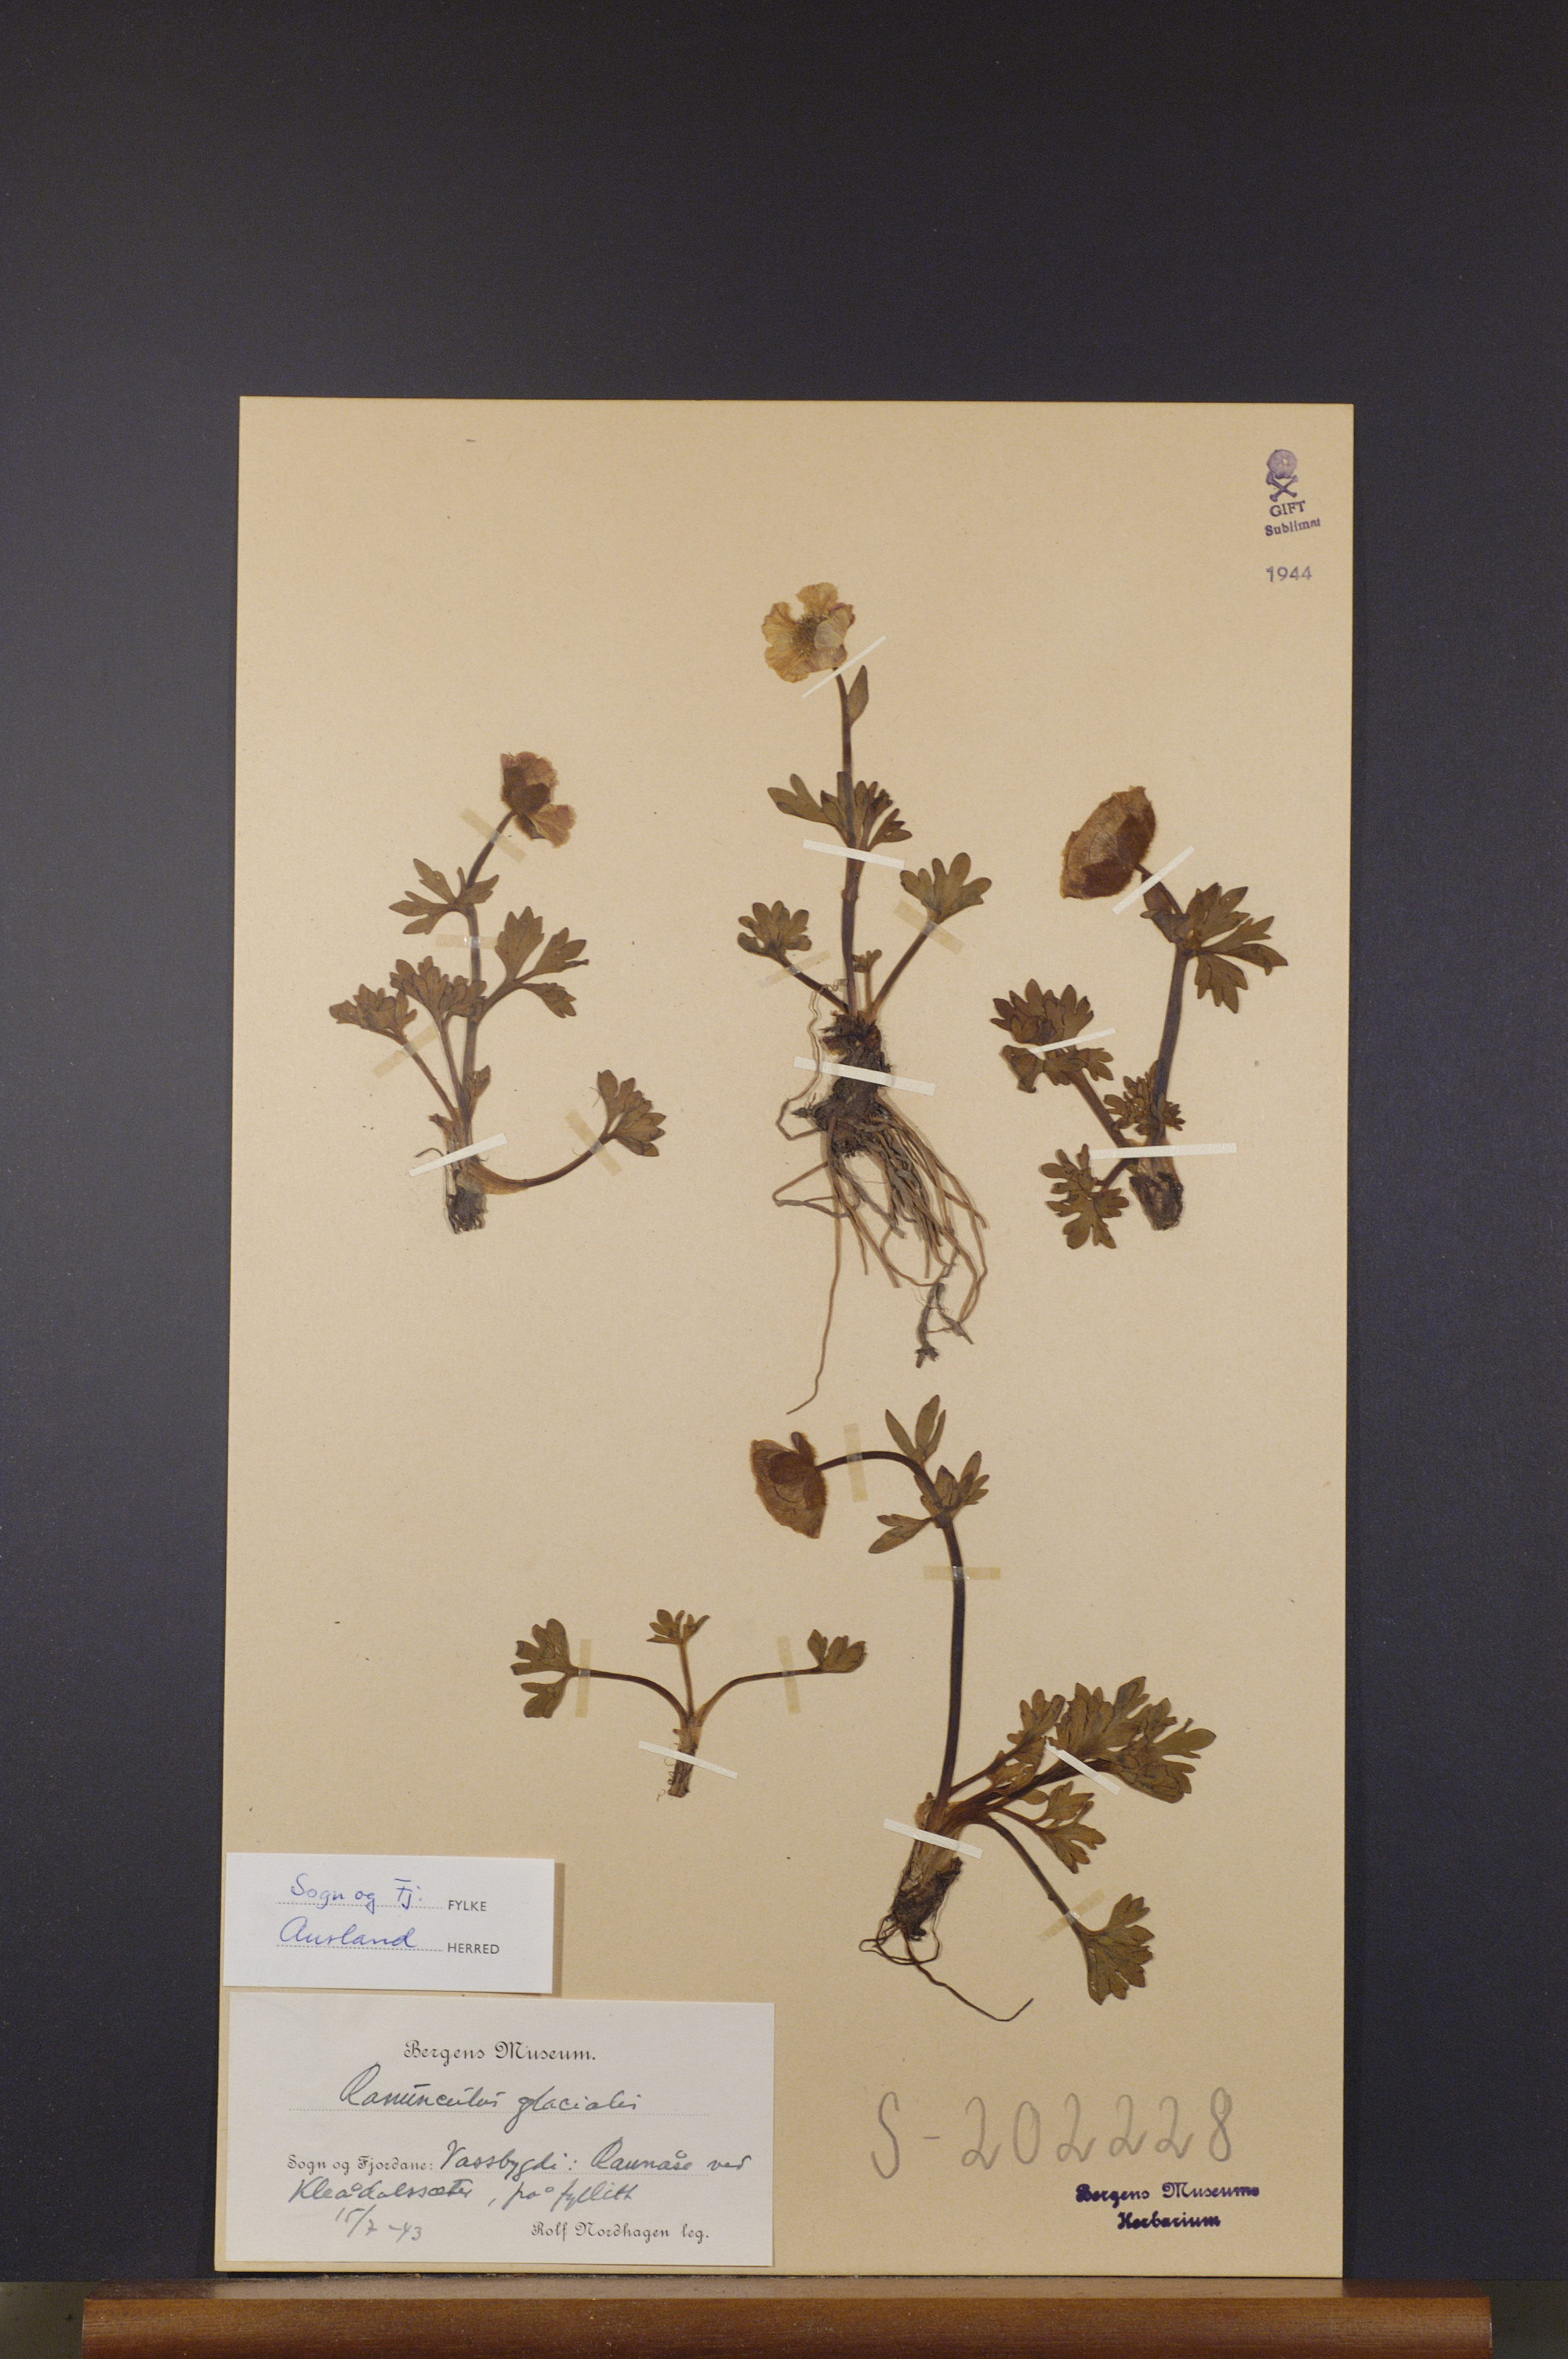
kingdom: Plantae
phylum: Tracheophyta
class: Magnoliopsida
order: Ranunculales
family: Ranunculaceae
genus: Ranunculus
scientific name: Ranunculus glacialis
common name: Glacier buttercup
